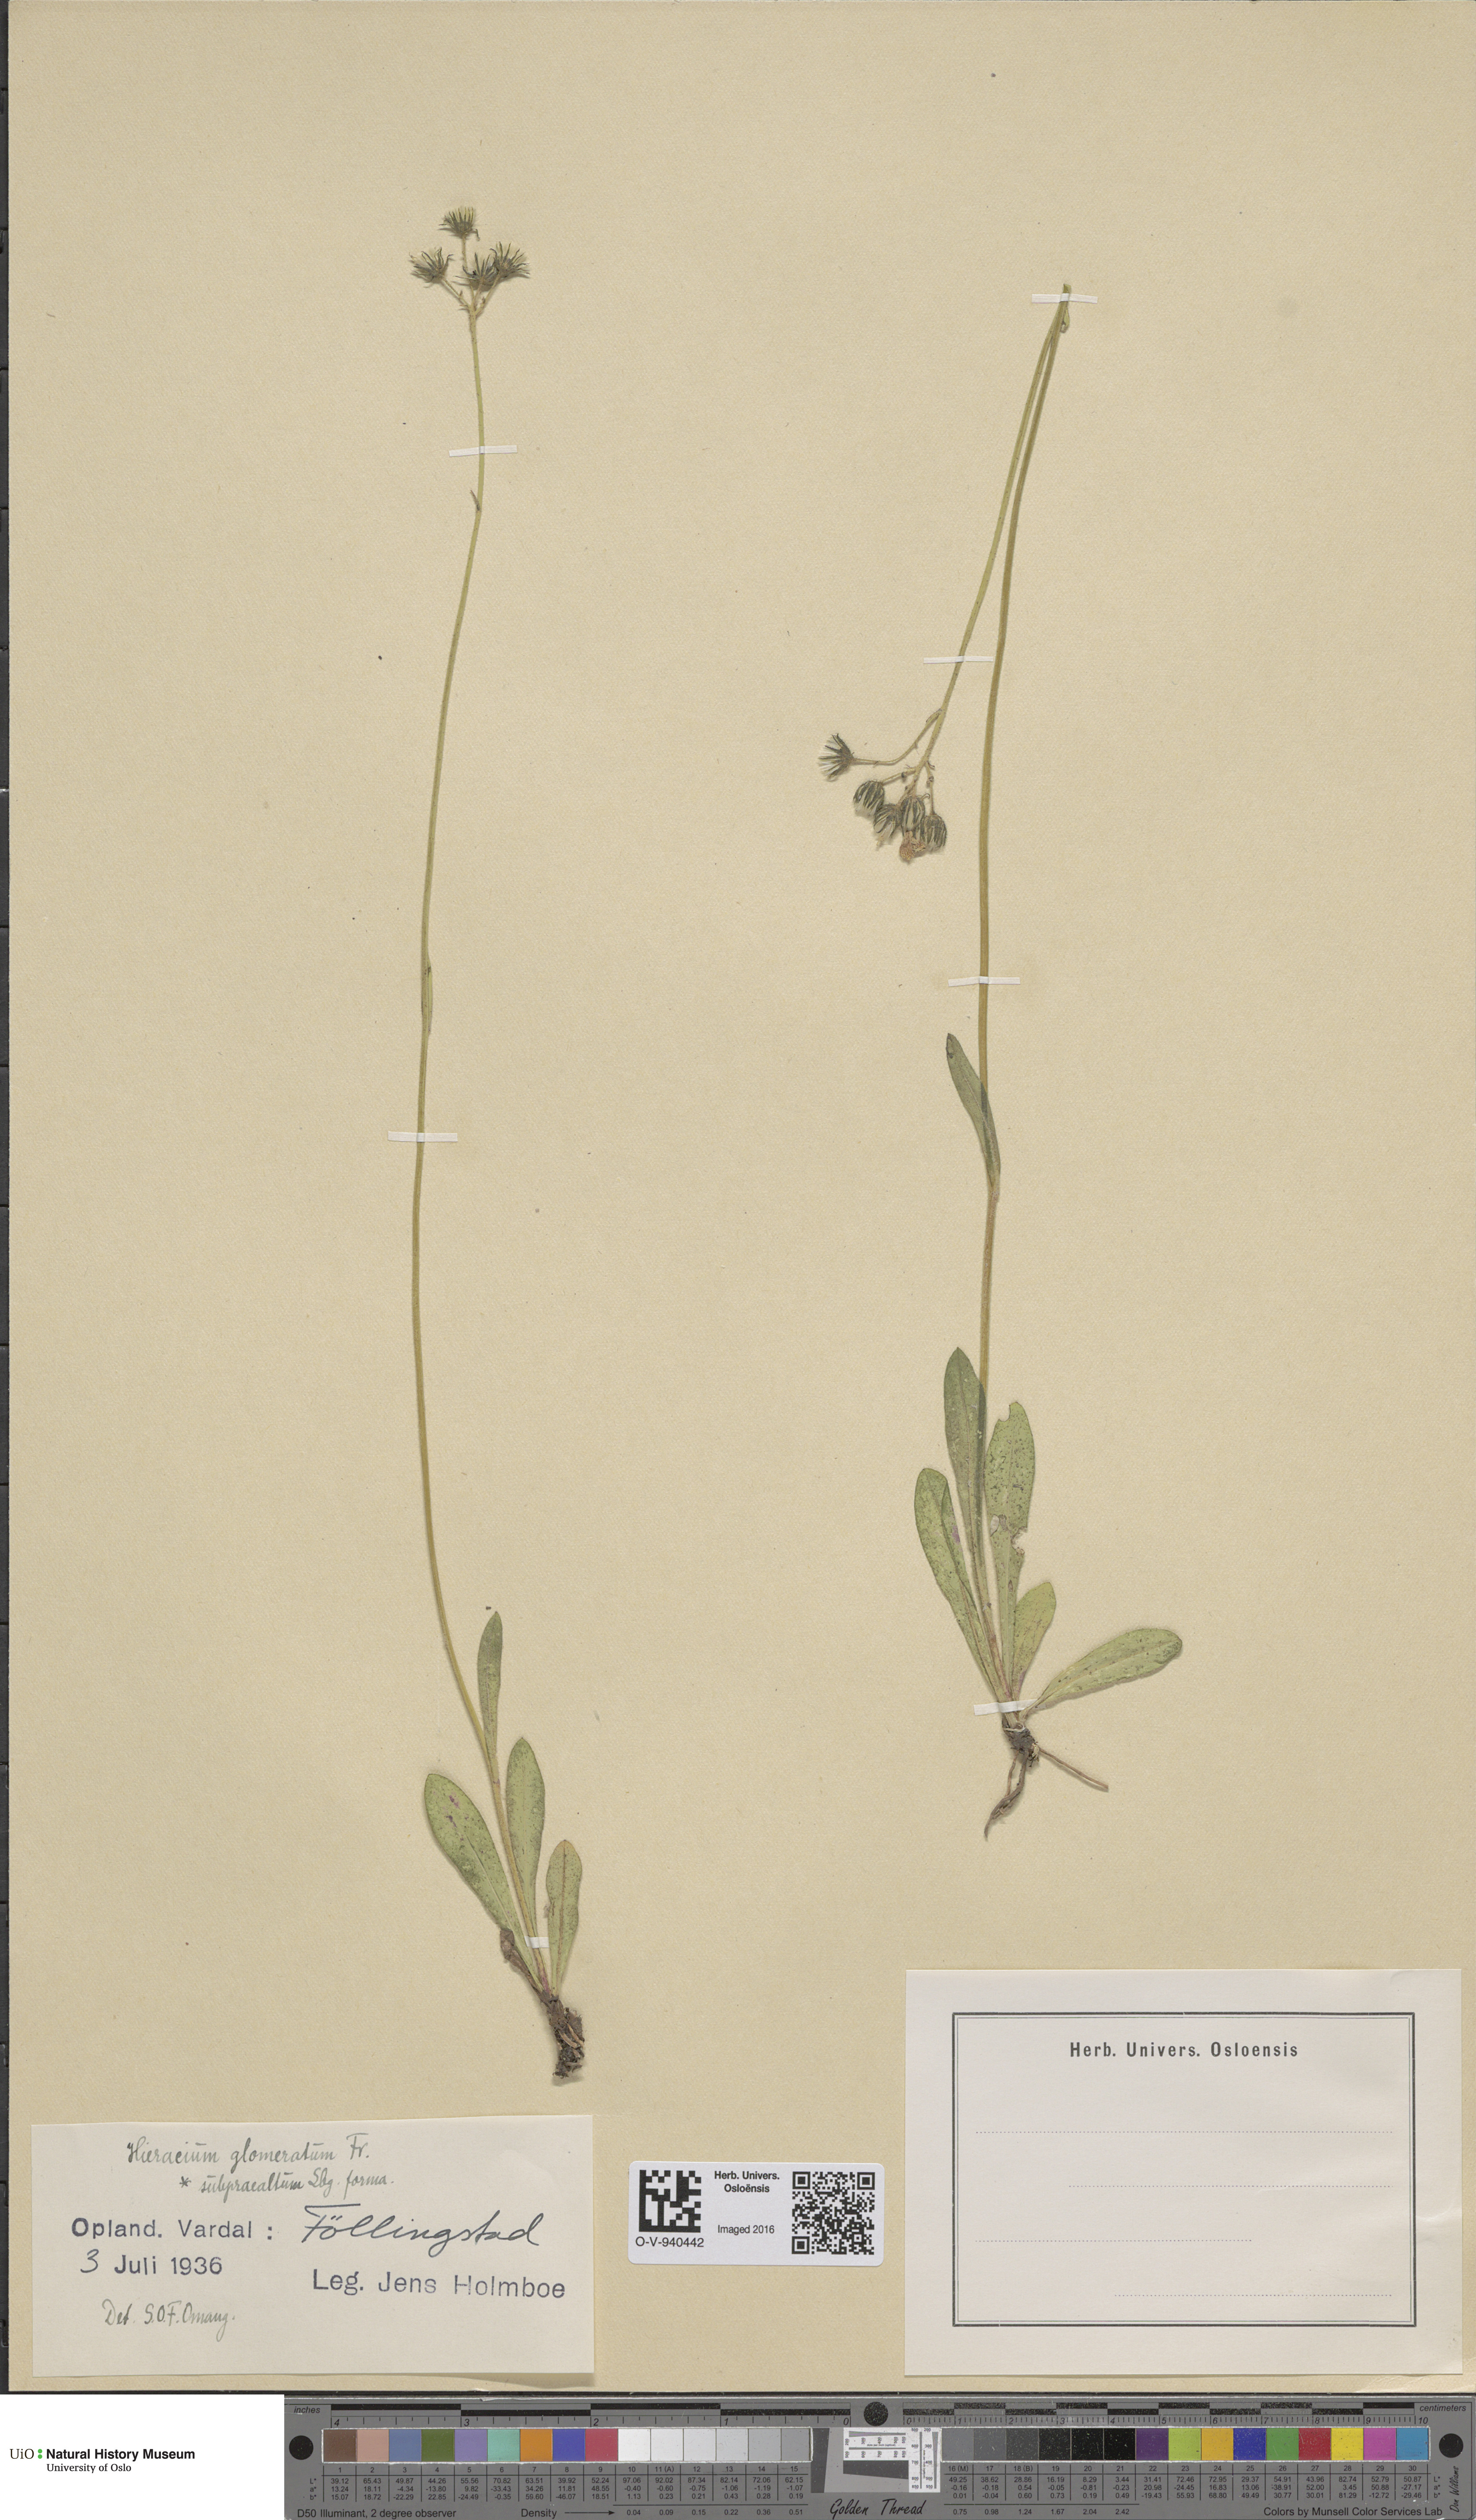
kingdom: Plantae
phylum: Tracheophyta
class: Magnoliopsida
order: Asterales
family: Asteraceae
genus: Pilosella
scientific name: Pilosella glomerata
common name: Queen devil hawkweed
